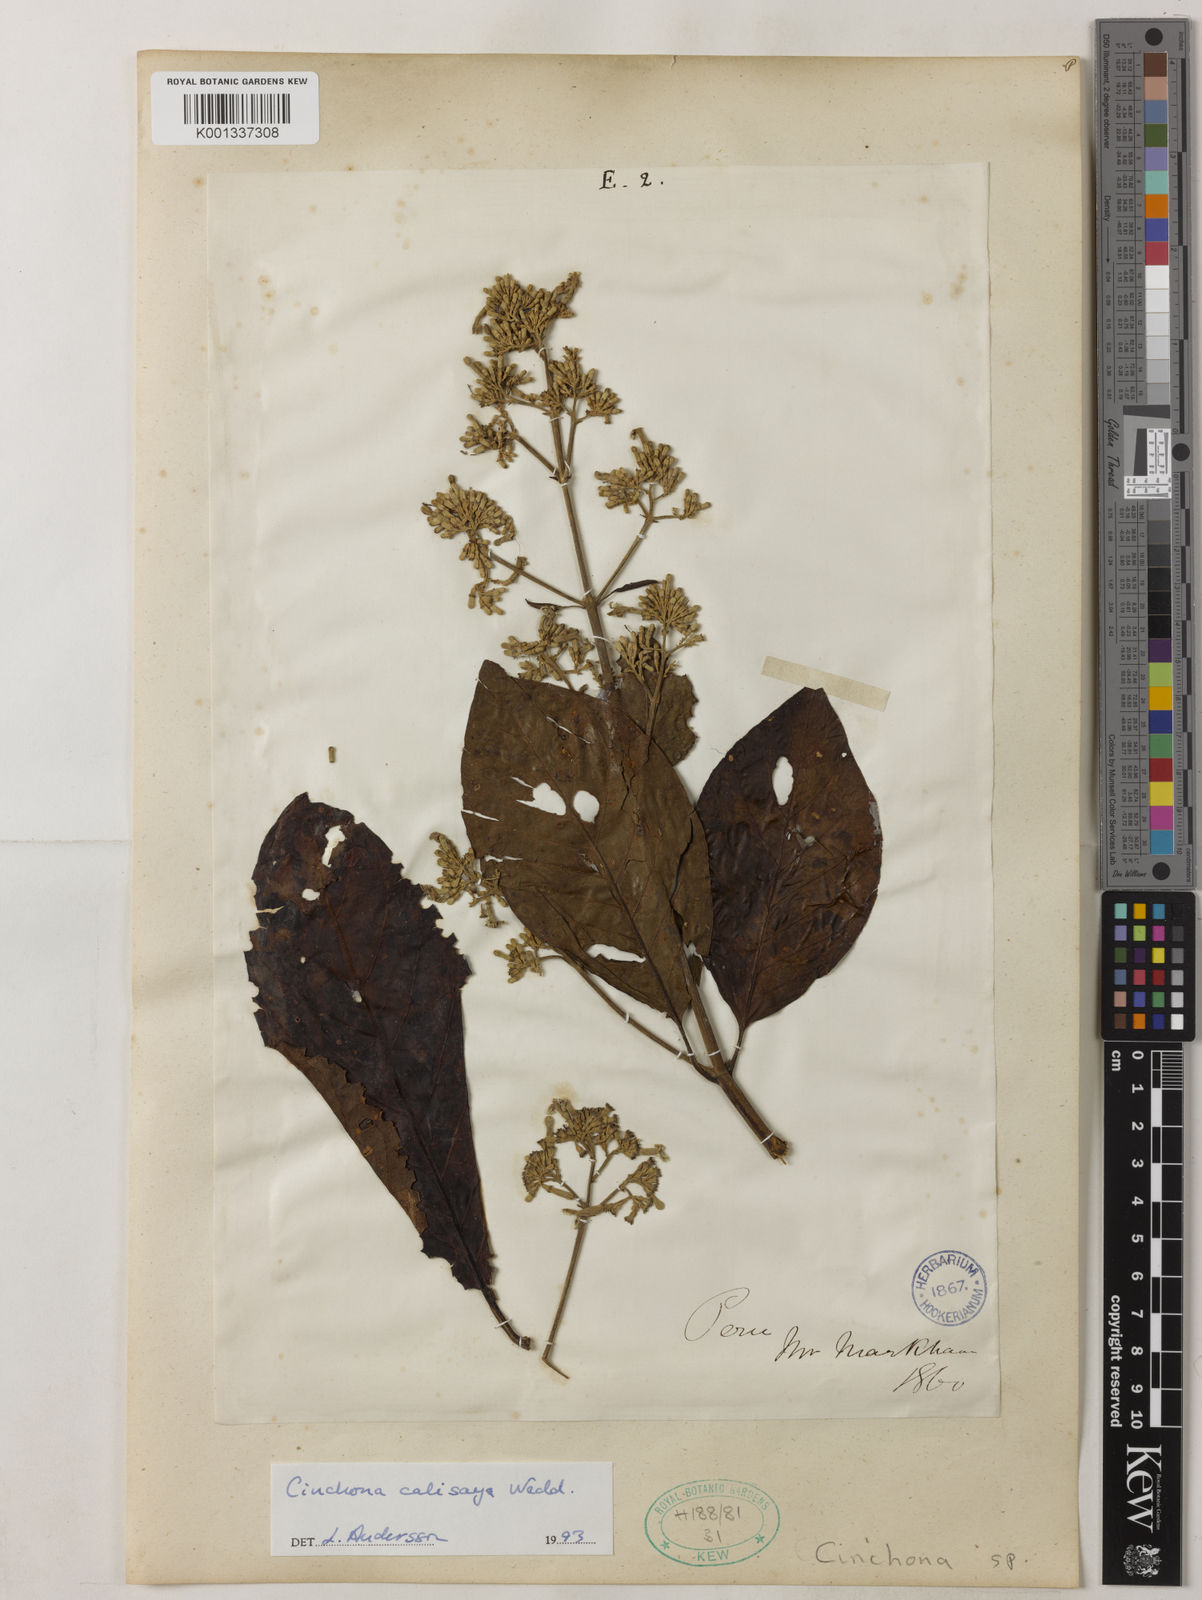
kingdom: Plantae
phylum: Tracheophyta
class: Magnoliopsida
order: Gentianales
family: Rubiaceae
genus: Cinchona
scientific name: Cinchona calisaya
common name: Ledgerbark
